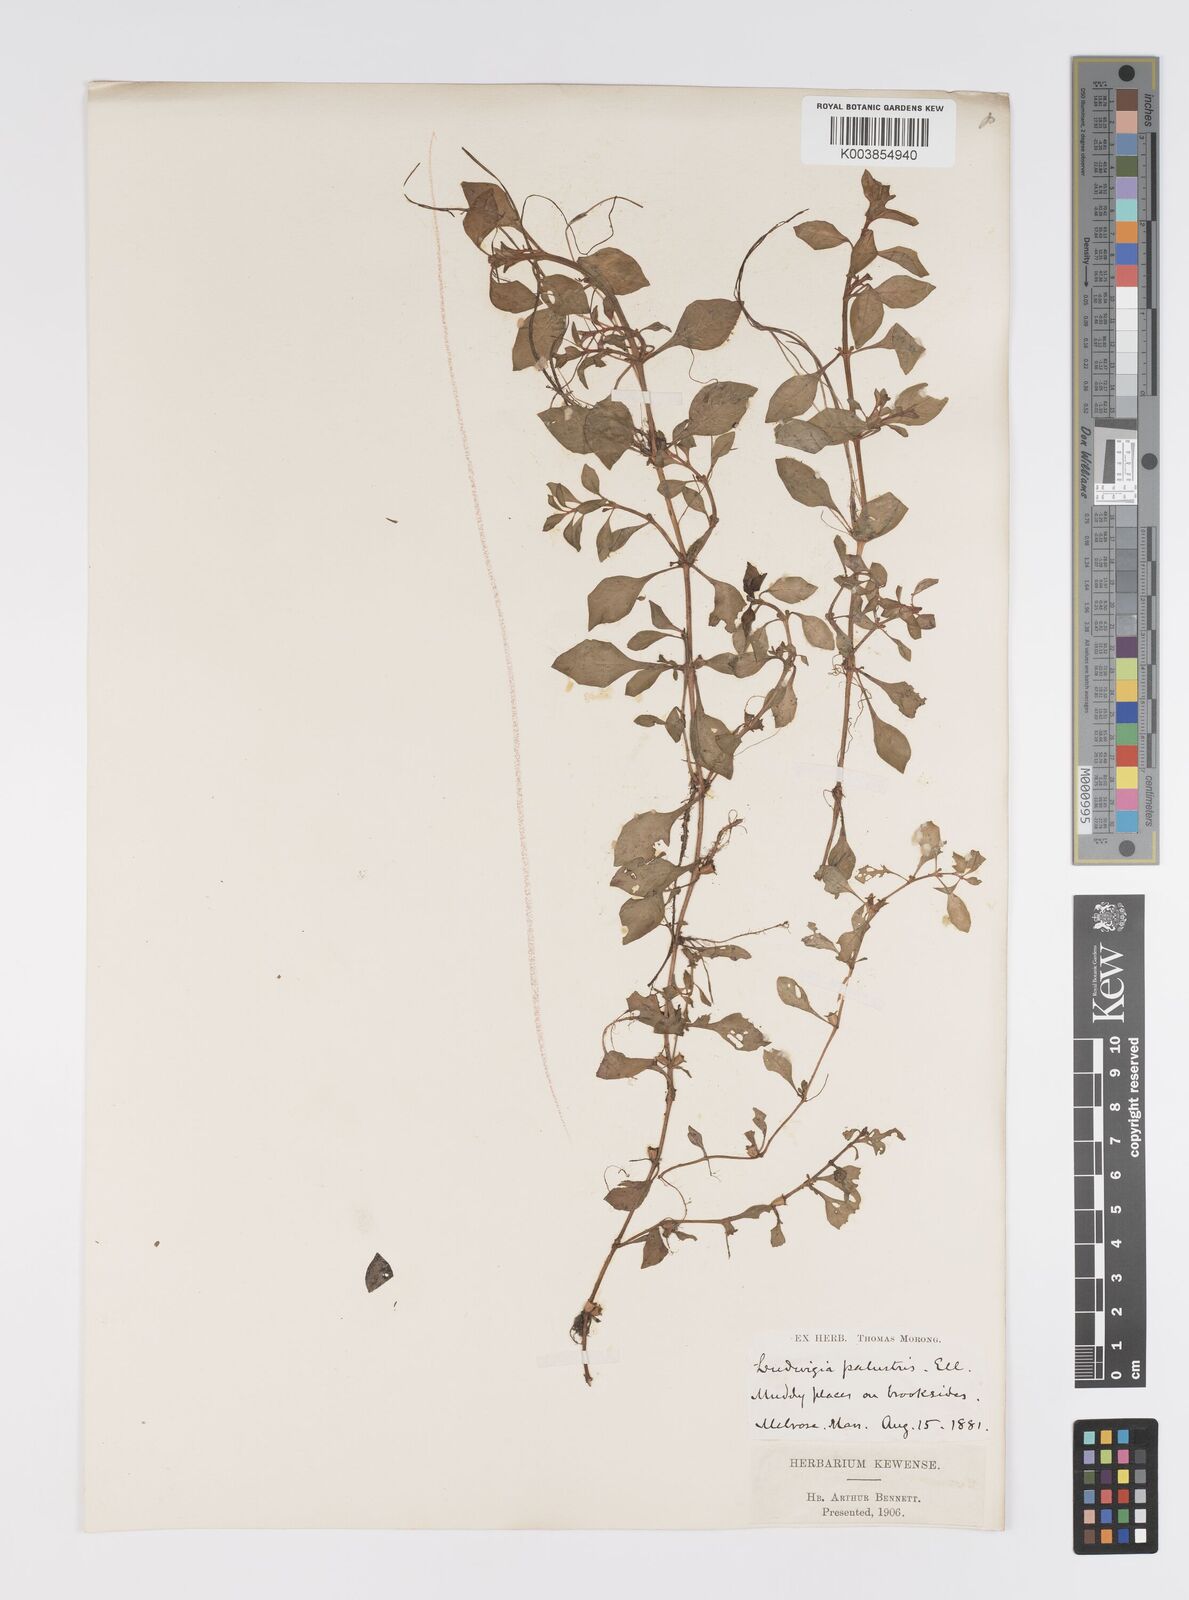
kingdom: Plantae
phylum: Tracheophyta
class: Magnoliopsida
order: Myrtales
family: Onagraceae
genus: Ludwigia
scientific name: Ludwigia palustris
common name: Hampshire-purslane
